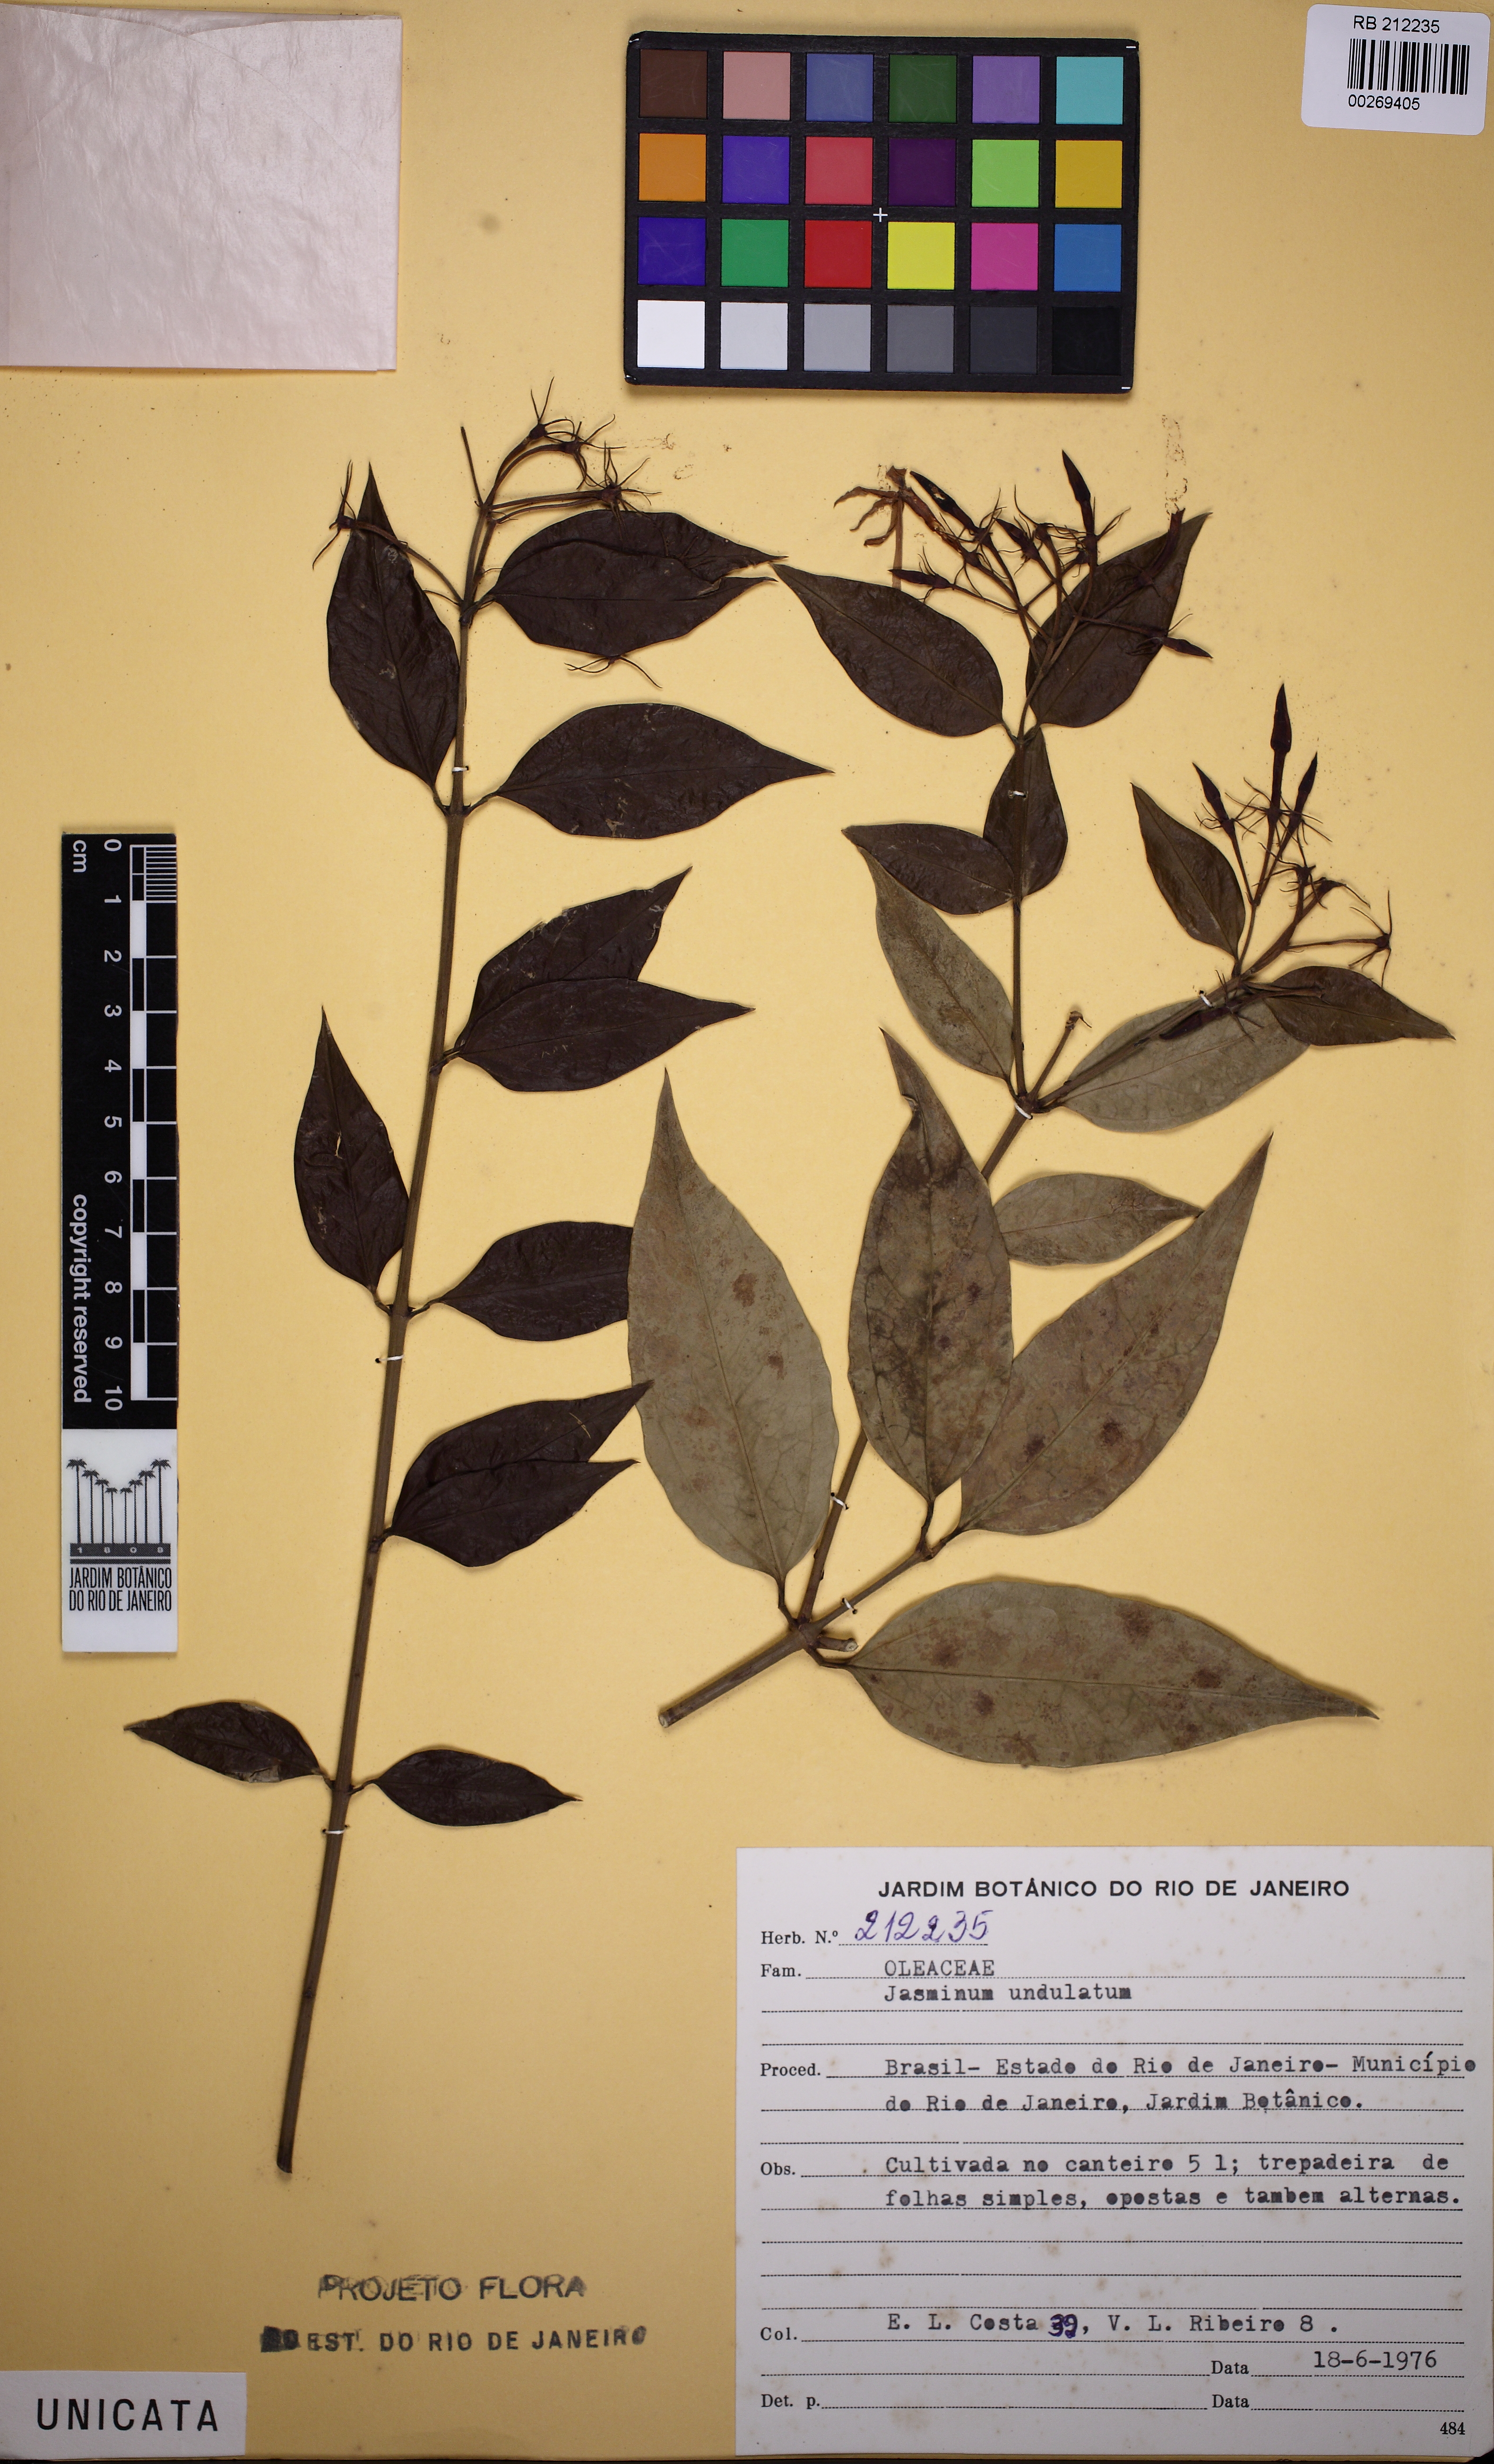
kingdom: Plantae
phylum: Tracheophyta
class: Magnoliopsida
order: Lamiales
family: Oleaceae
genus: Jasminum
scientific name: Jasminum elongatum
